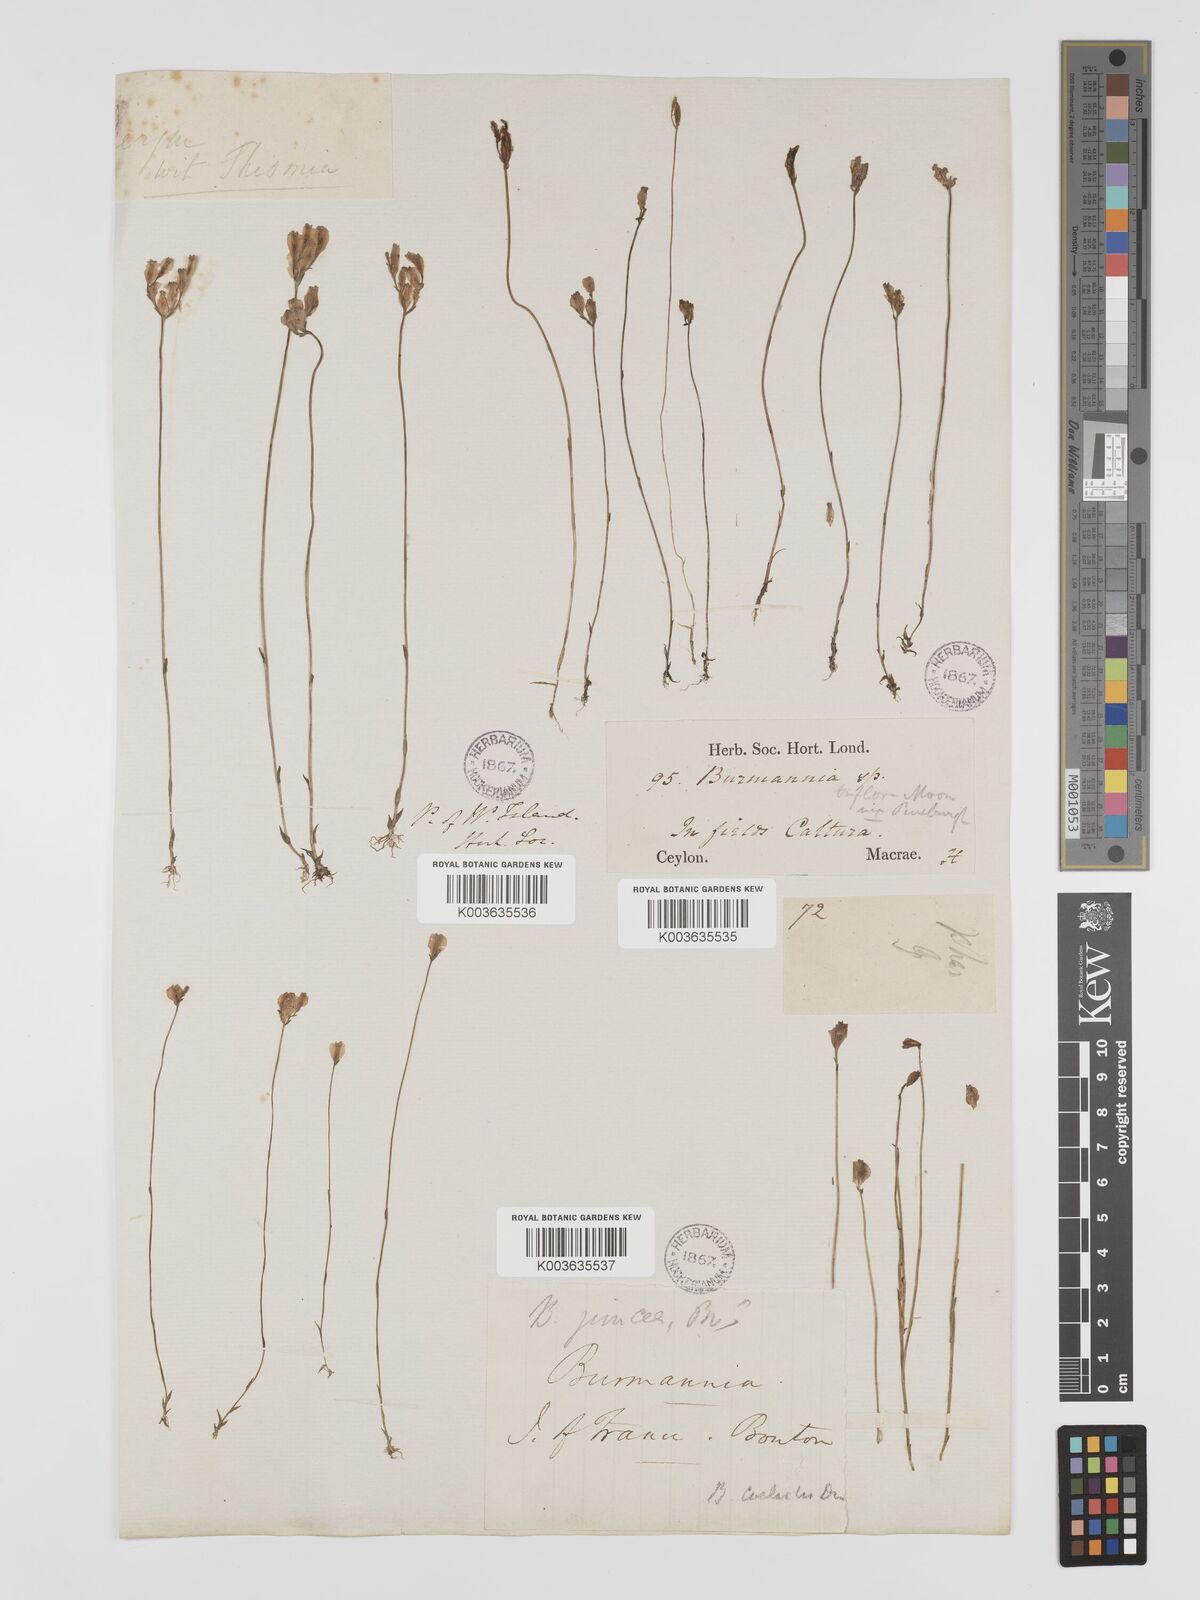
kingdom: Plantae
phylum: Tracheophyta
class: Liliopsida
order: Dioscoreales
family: Burmanniaceae
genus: Burmannia
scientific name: Burmannia coelestis
